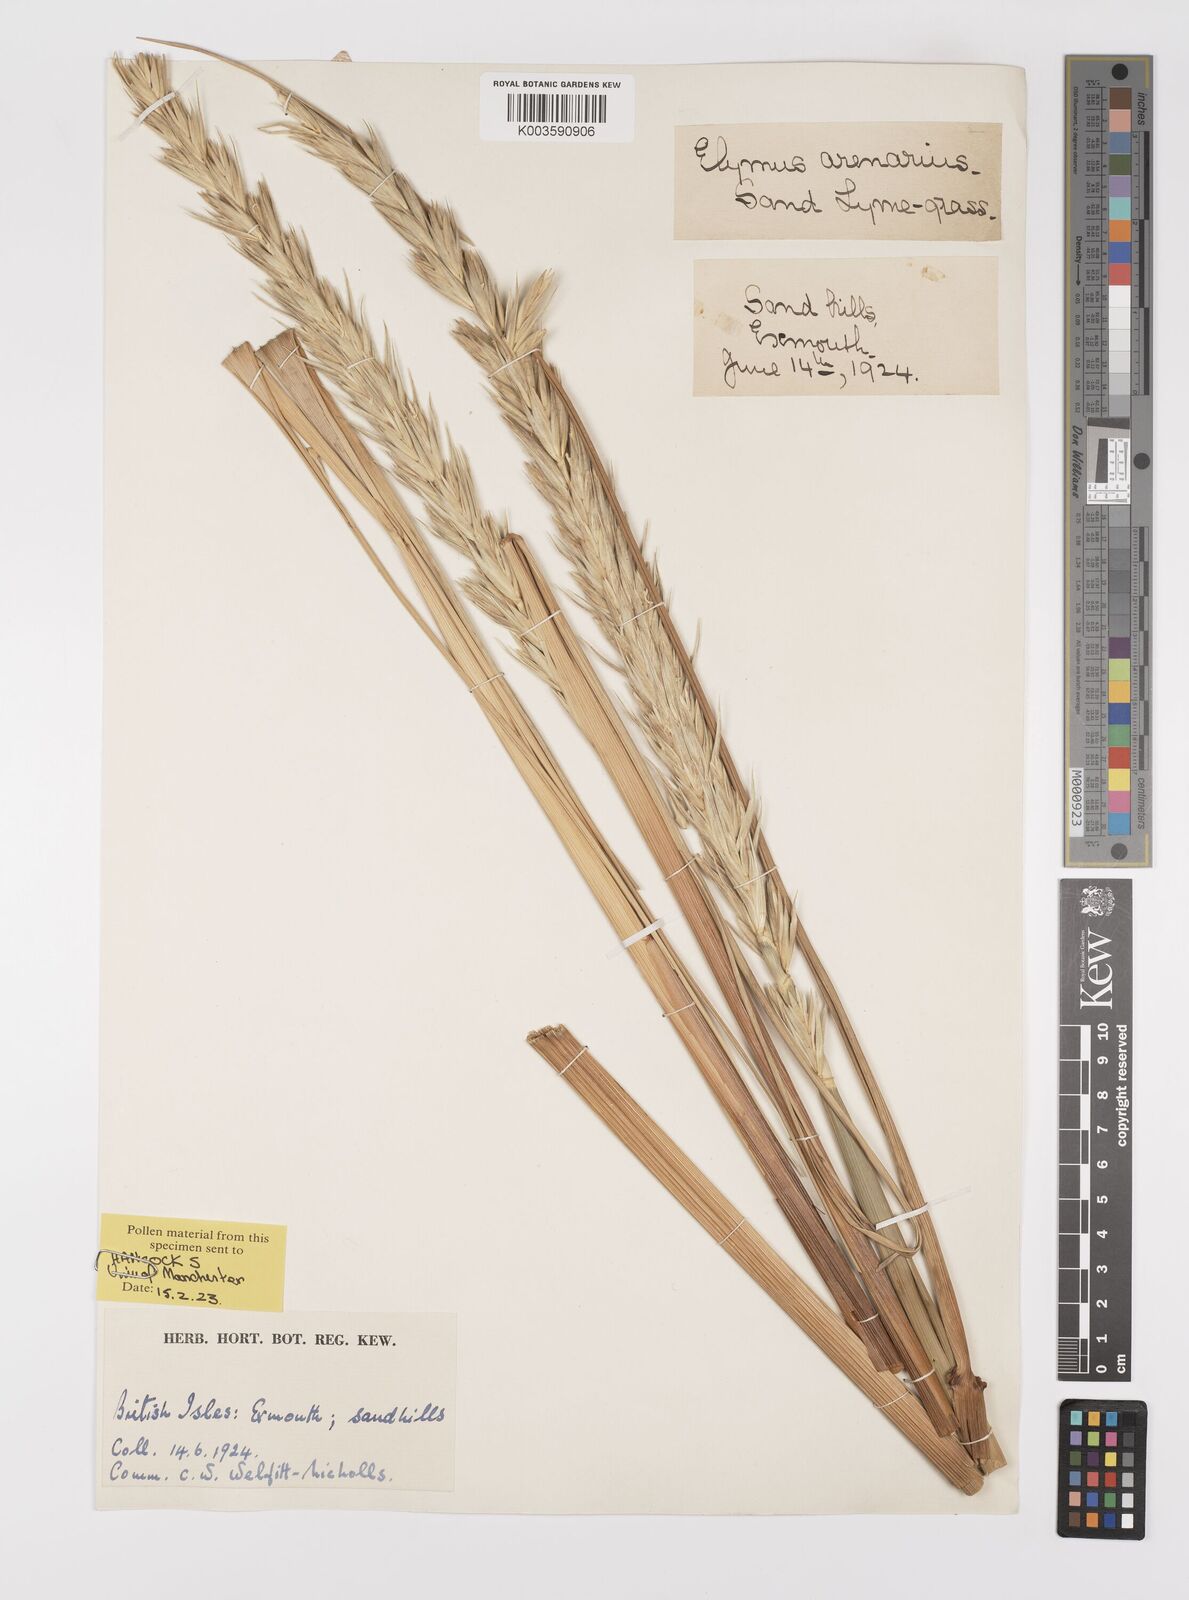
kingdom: Plantae
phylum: Tracheophyta
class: Liliopsida
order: Poales
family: Poaceae
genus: Leymus
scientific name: Leymus arenarius
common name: Lyme-grass
